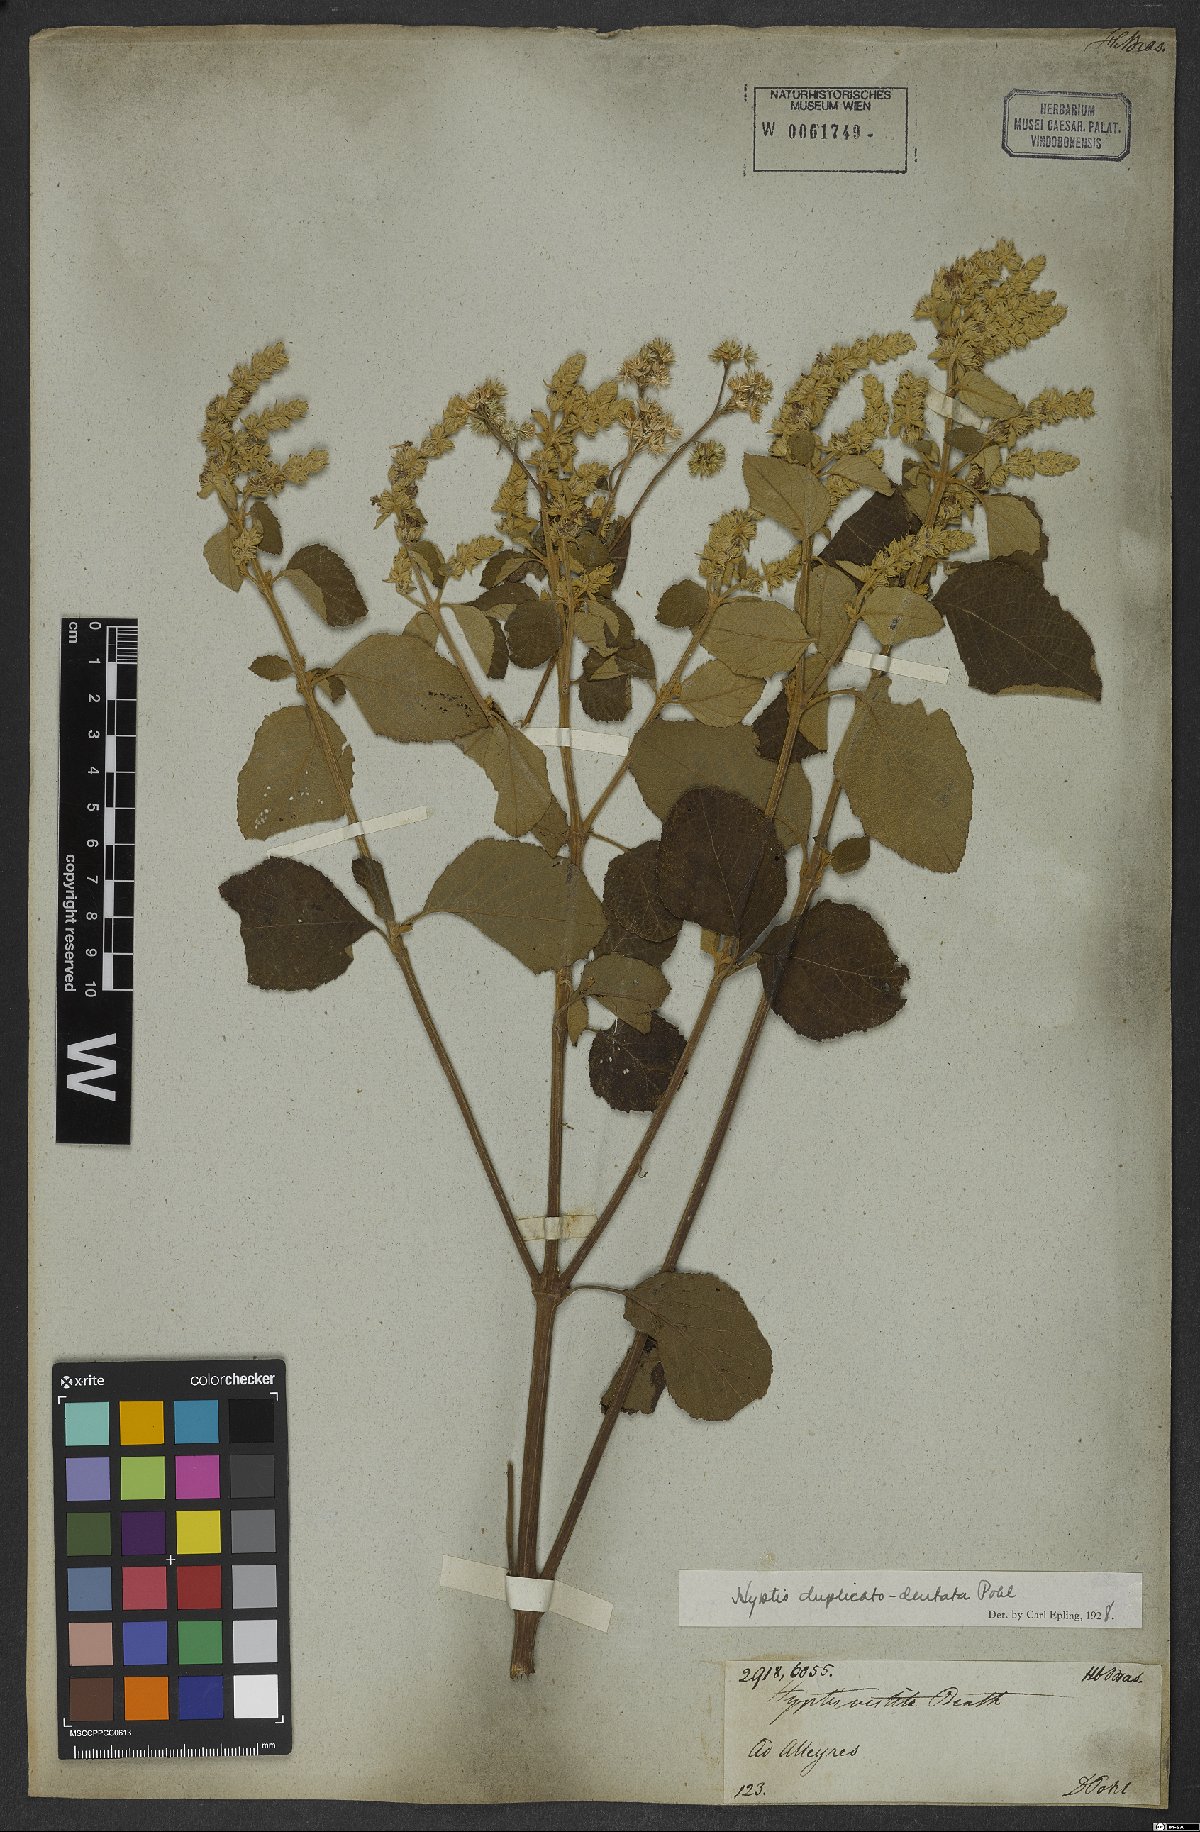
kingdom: Plantae
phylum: Tracheophyta
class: Magnoliopsida
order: Lamiales
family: Lamiaceae
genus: Cantinoa
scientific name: Cantinoa duplicatodentata
